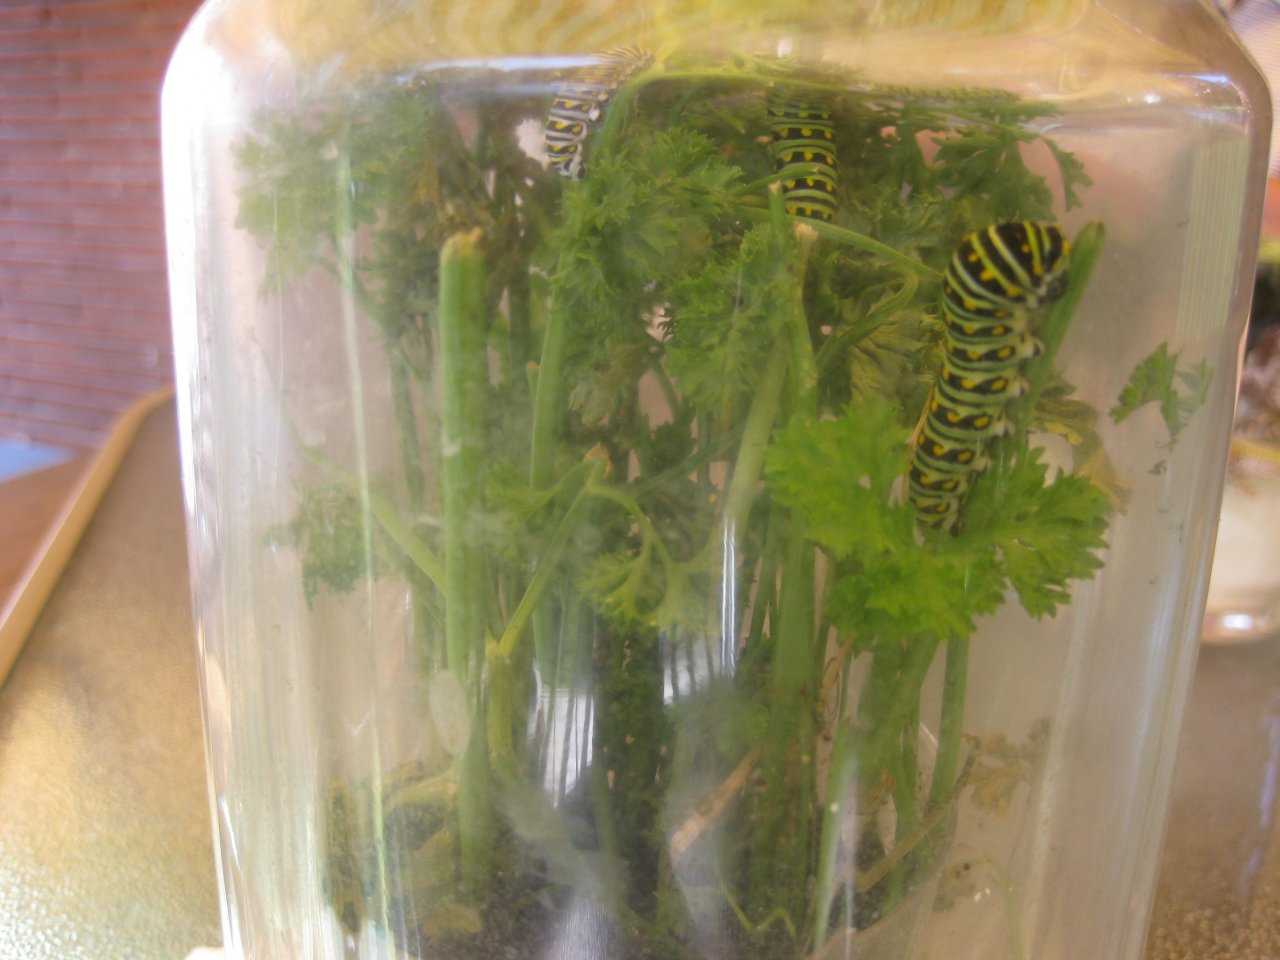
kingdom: Animalia
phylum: Arthropoda
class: Insecta
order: Lepidoptera
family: Papilionidae
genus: Papilio
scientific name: Papilio polyxenes
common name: Black Swallowtail
